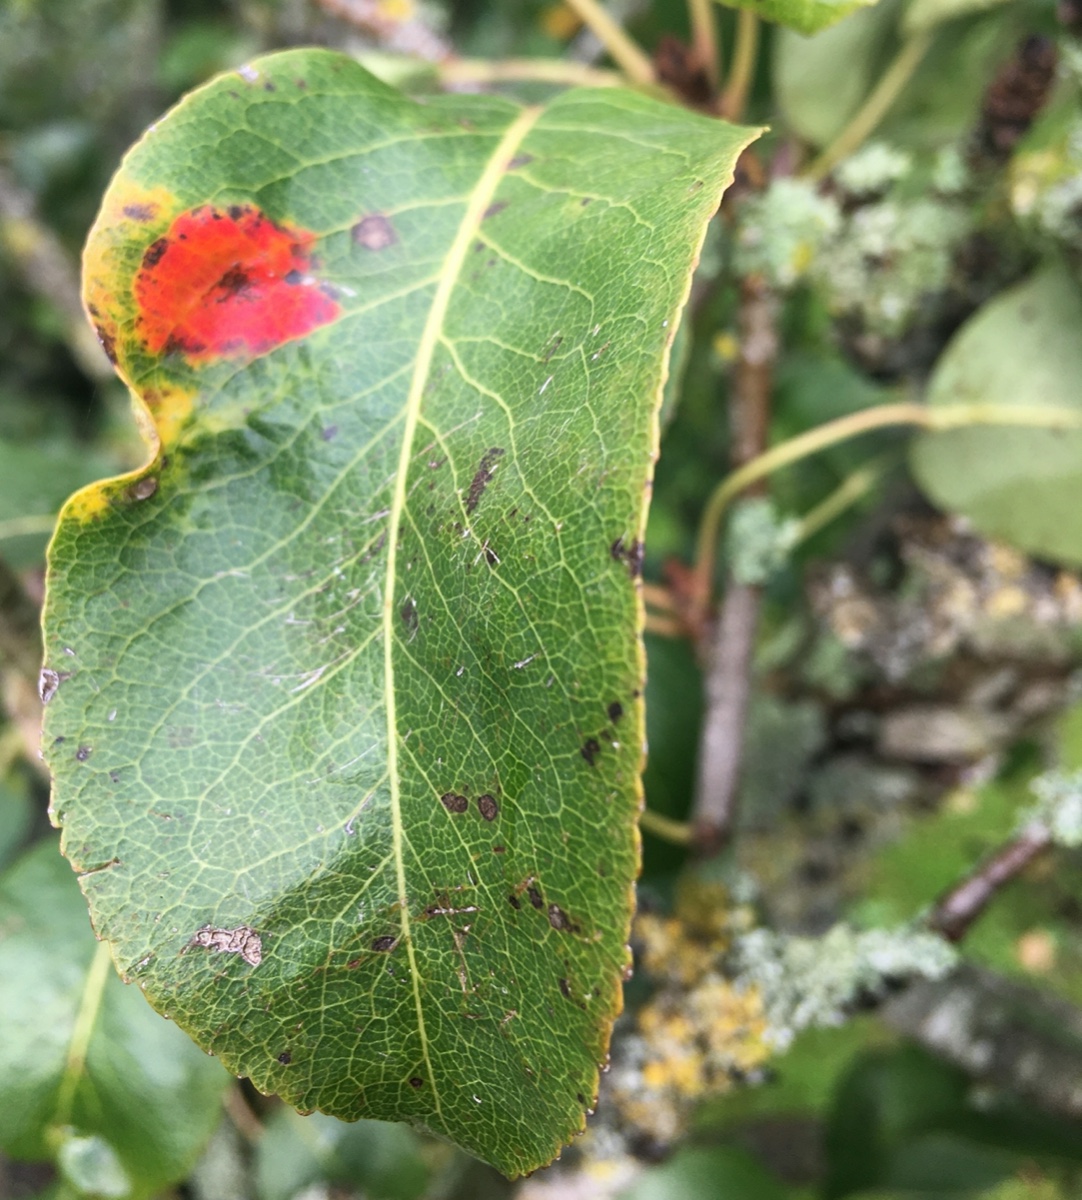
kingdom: Fungi
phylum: Basidiomycota
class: Pucciniomycetes
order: Pucciniales
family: Gymnosporangiaceae
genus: Gymnosporangium
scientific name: Gymnosporangium sabinae
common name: pæregitter-bævrerust
